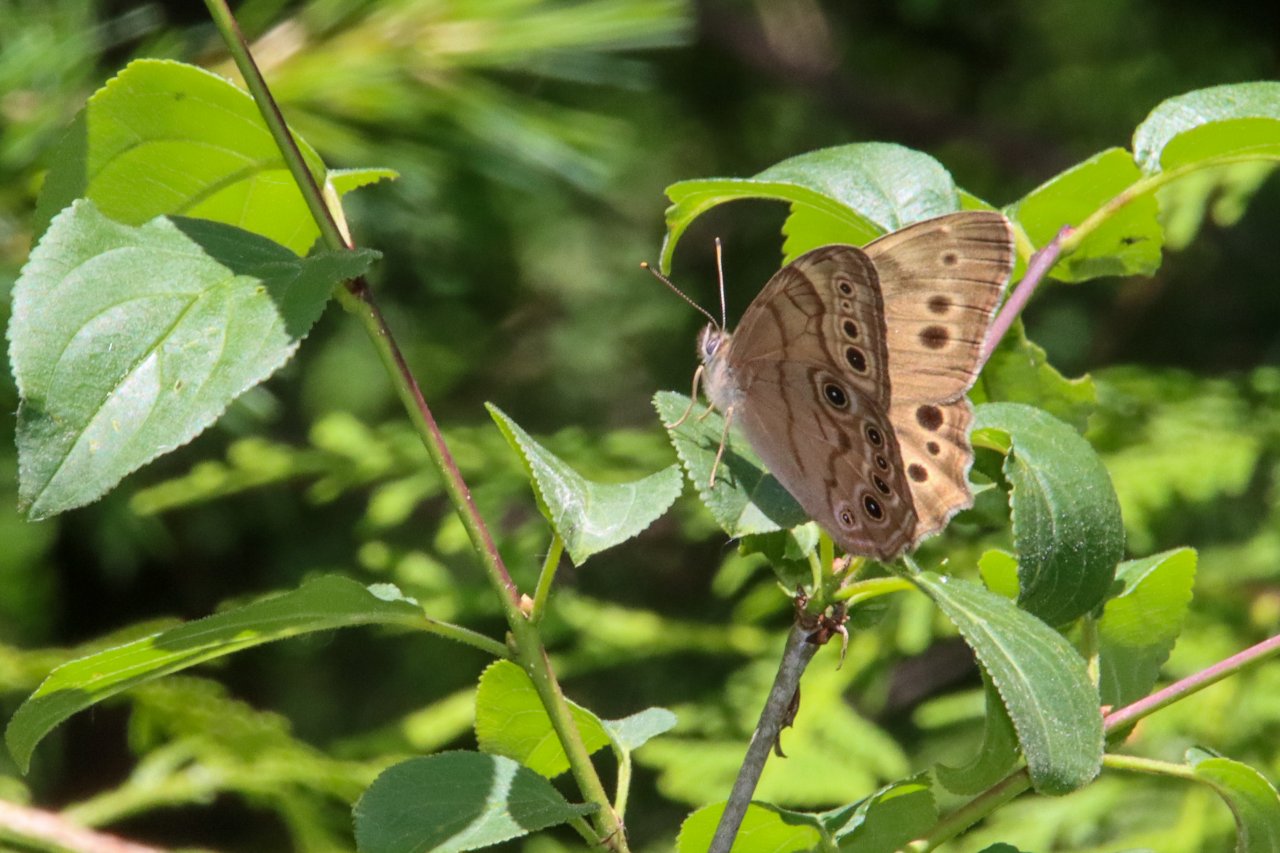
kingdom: Animalia
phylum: Arthropoda
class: Insecta
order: Lepidoptera
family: Nymphalidae
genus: Lethe
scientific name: Lethe anthedon
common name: Northern Pearly-Eye
